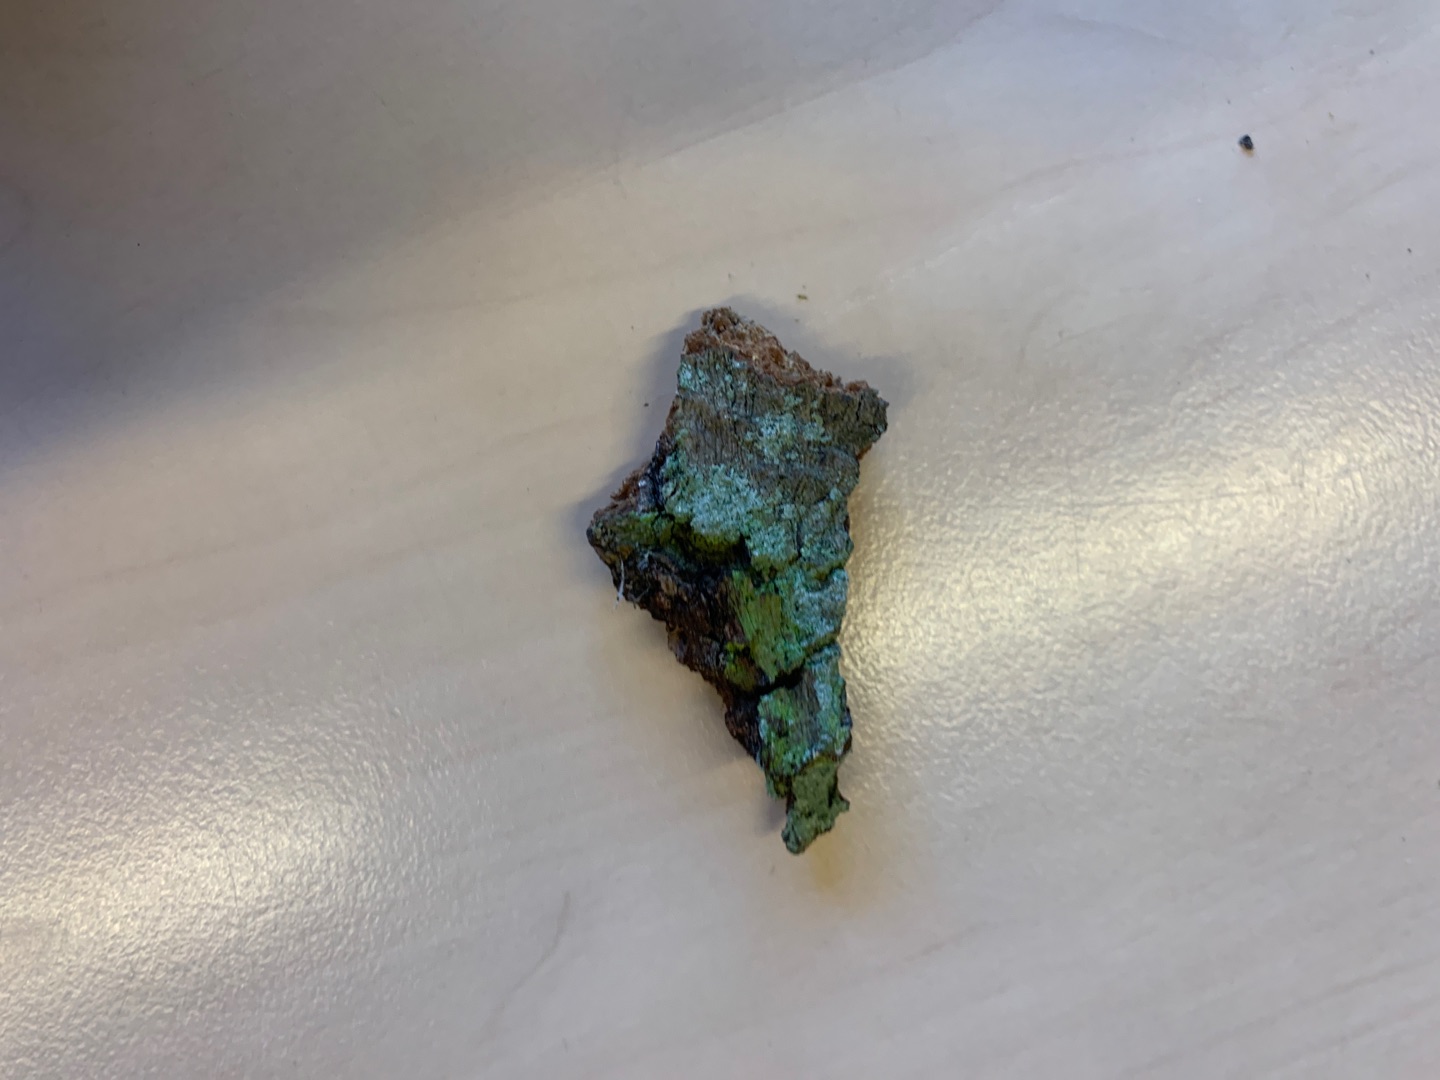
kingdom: Fungi
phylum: Ascomycota
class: Lecanoromycetes
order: Lecanorales
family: Stereocaulaceae
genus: Lepraria
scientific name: Lepraria incana
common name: Almindelig støvlav
